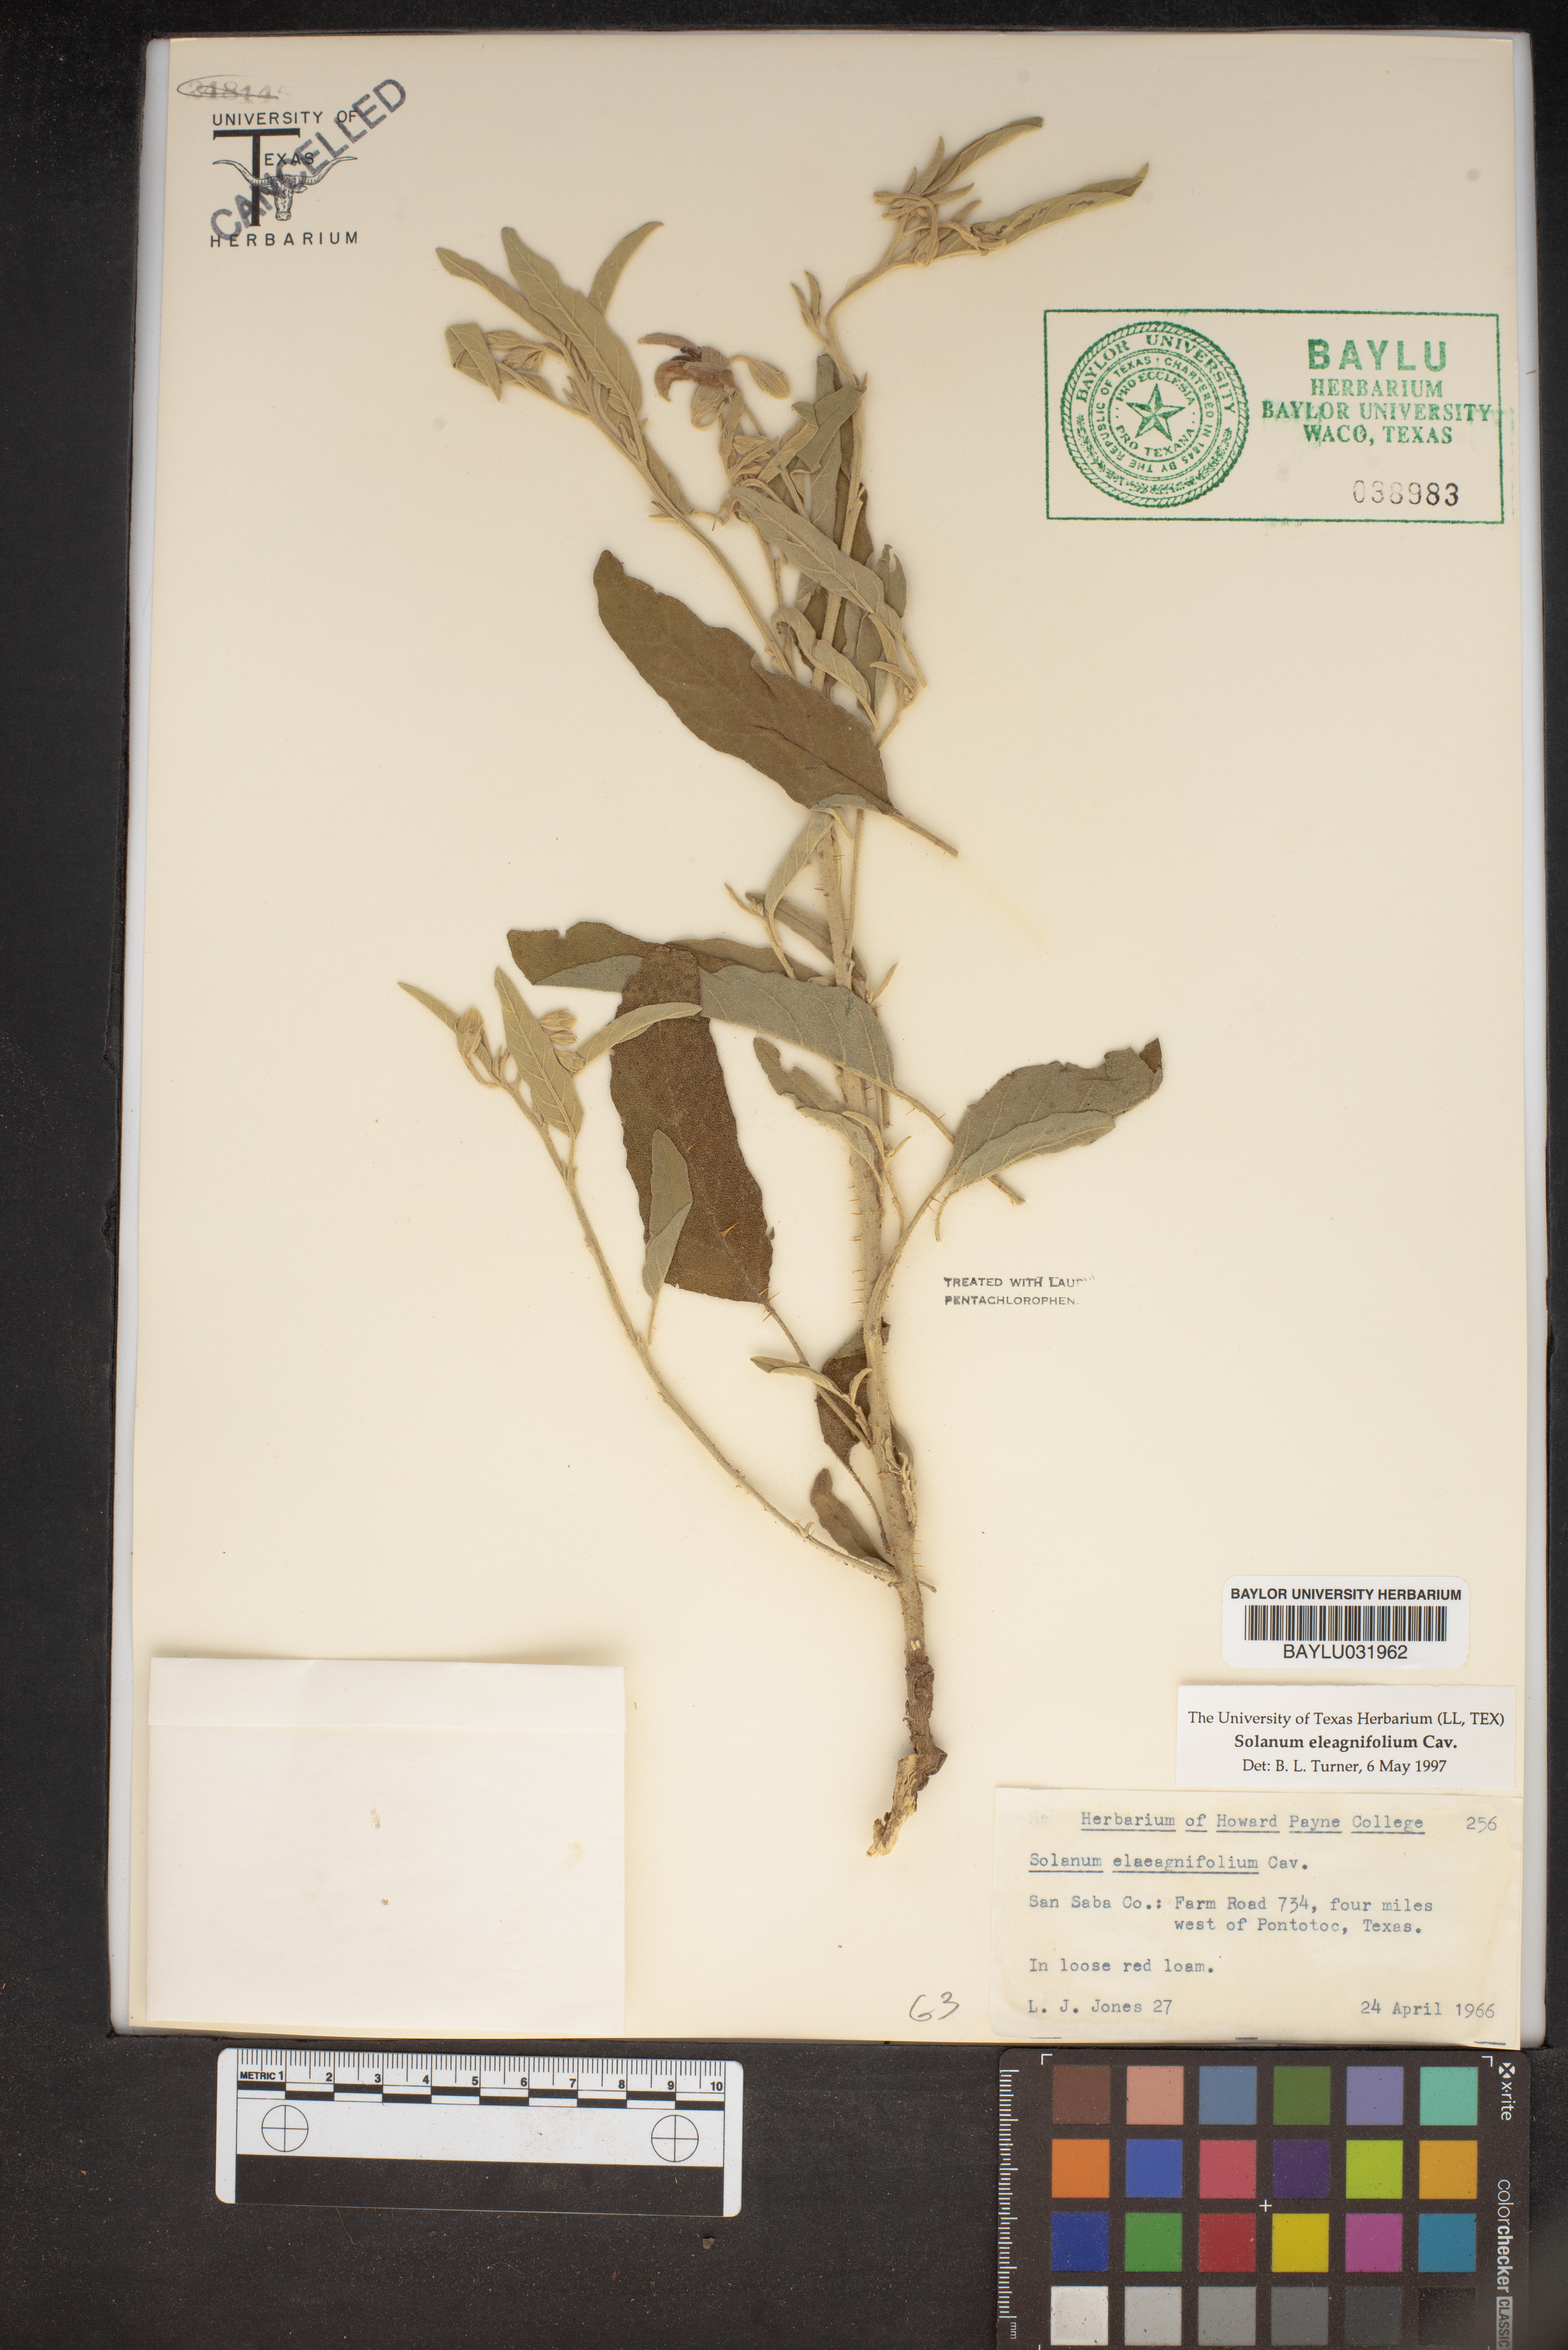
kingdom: Plantae
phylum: Tracheophyta
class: Magnoliopsida
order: Solanales
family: Solanaceae
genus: Solanum
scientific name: Solanum elaeagnifolium
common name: Silverleaf nightshade
